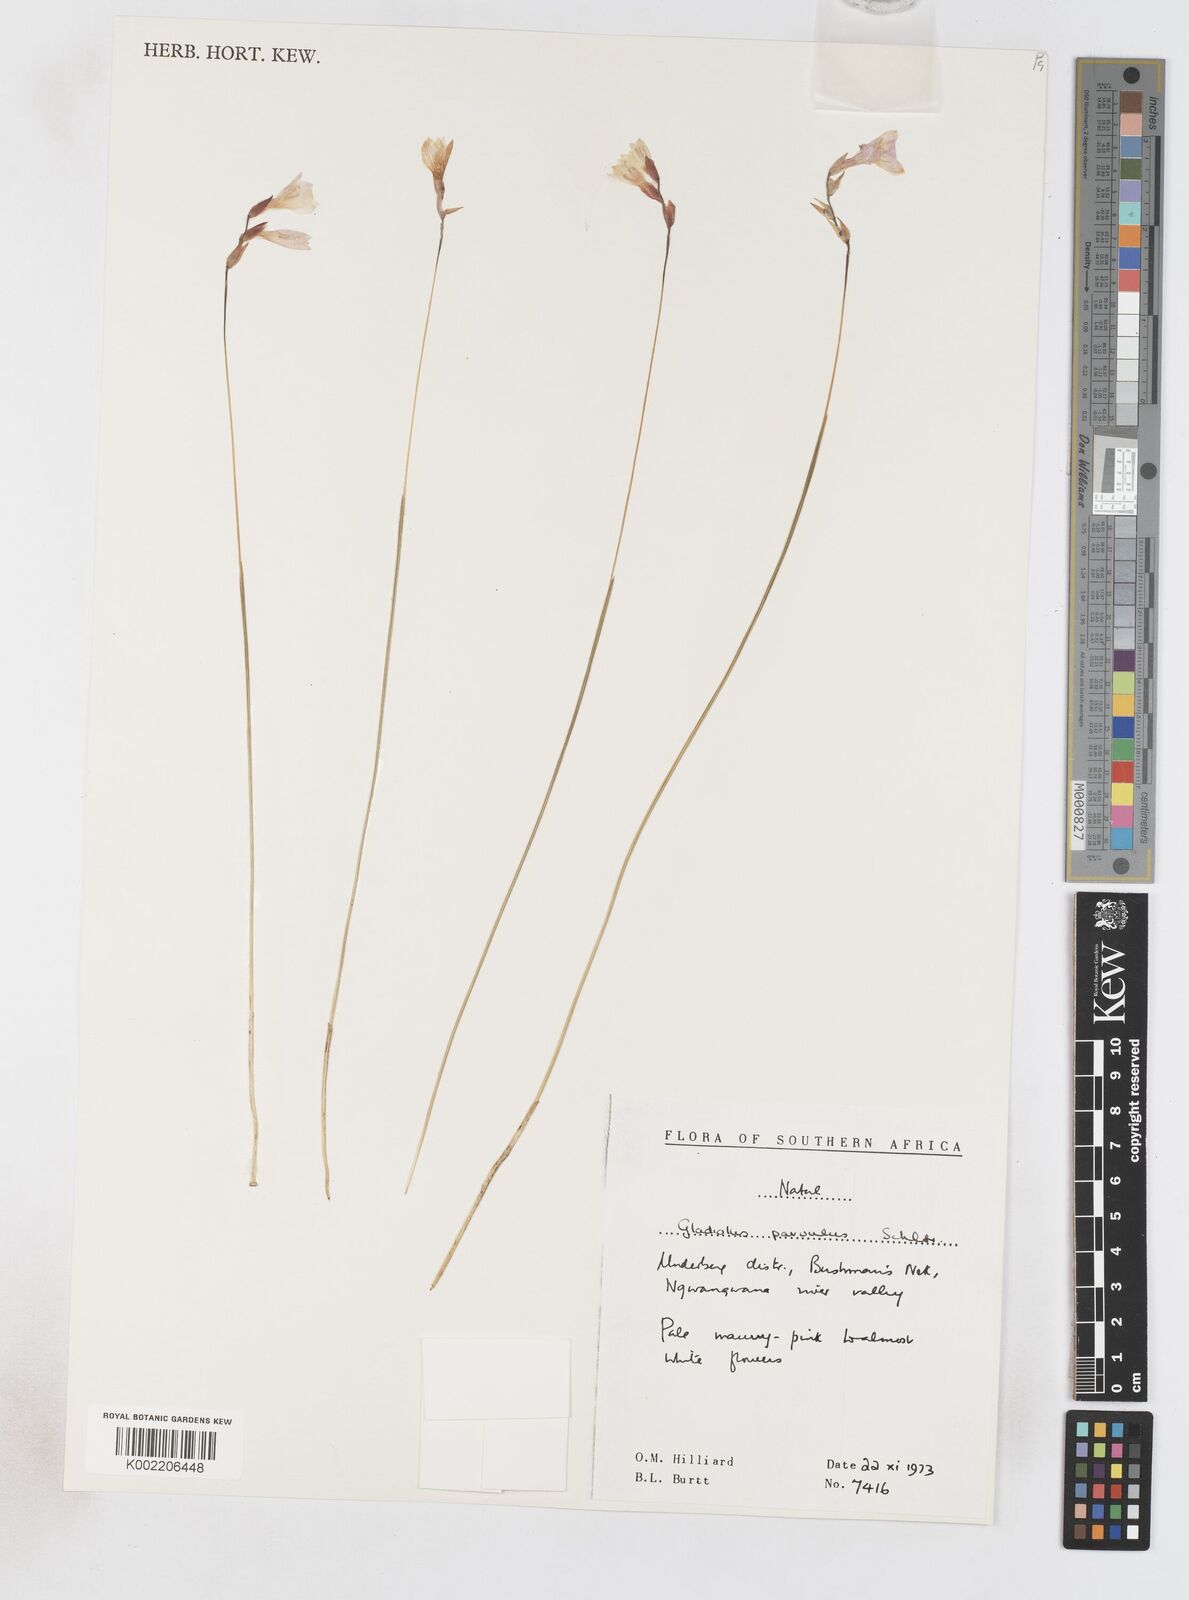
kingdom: Plantae
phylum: Tracheophyta
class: Liliopsida
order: Asparagales
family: Iridaceae
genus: Gladiolus
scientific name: Gladiolus parvulus
